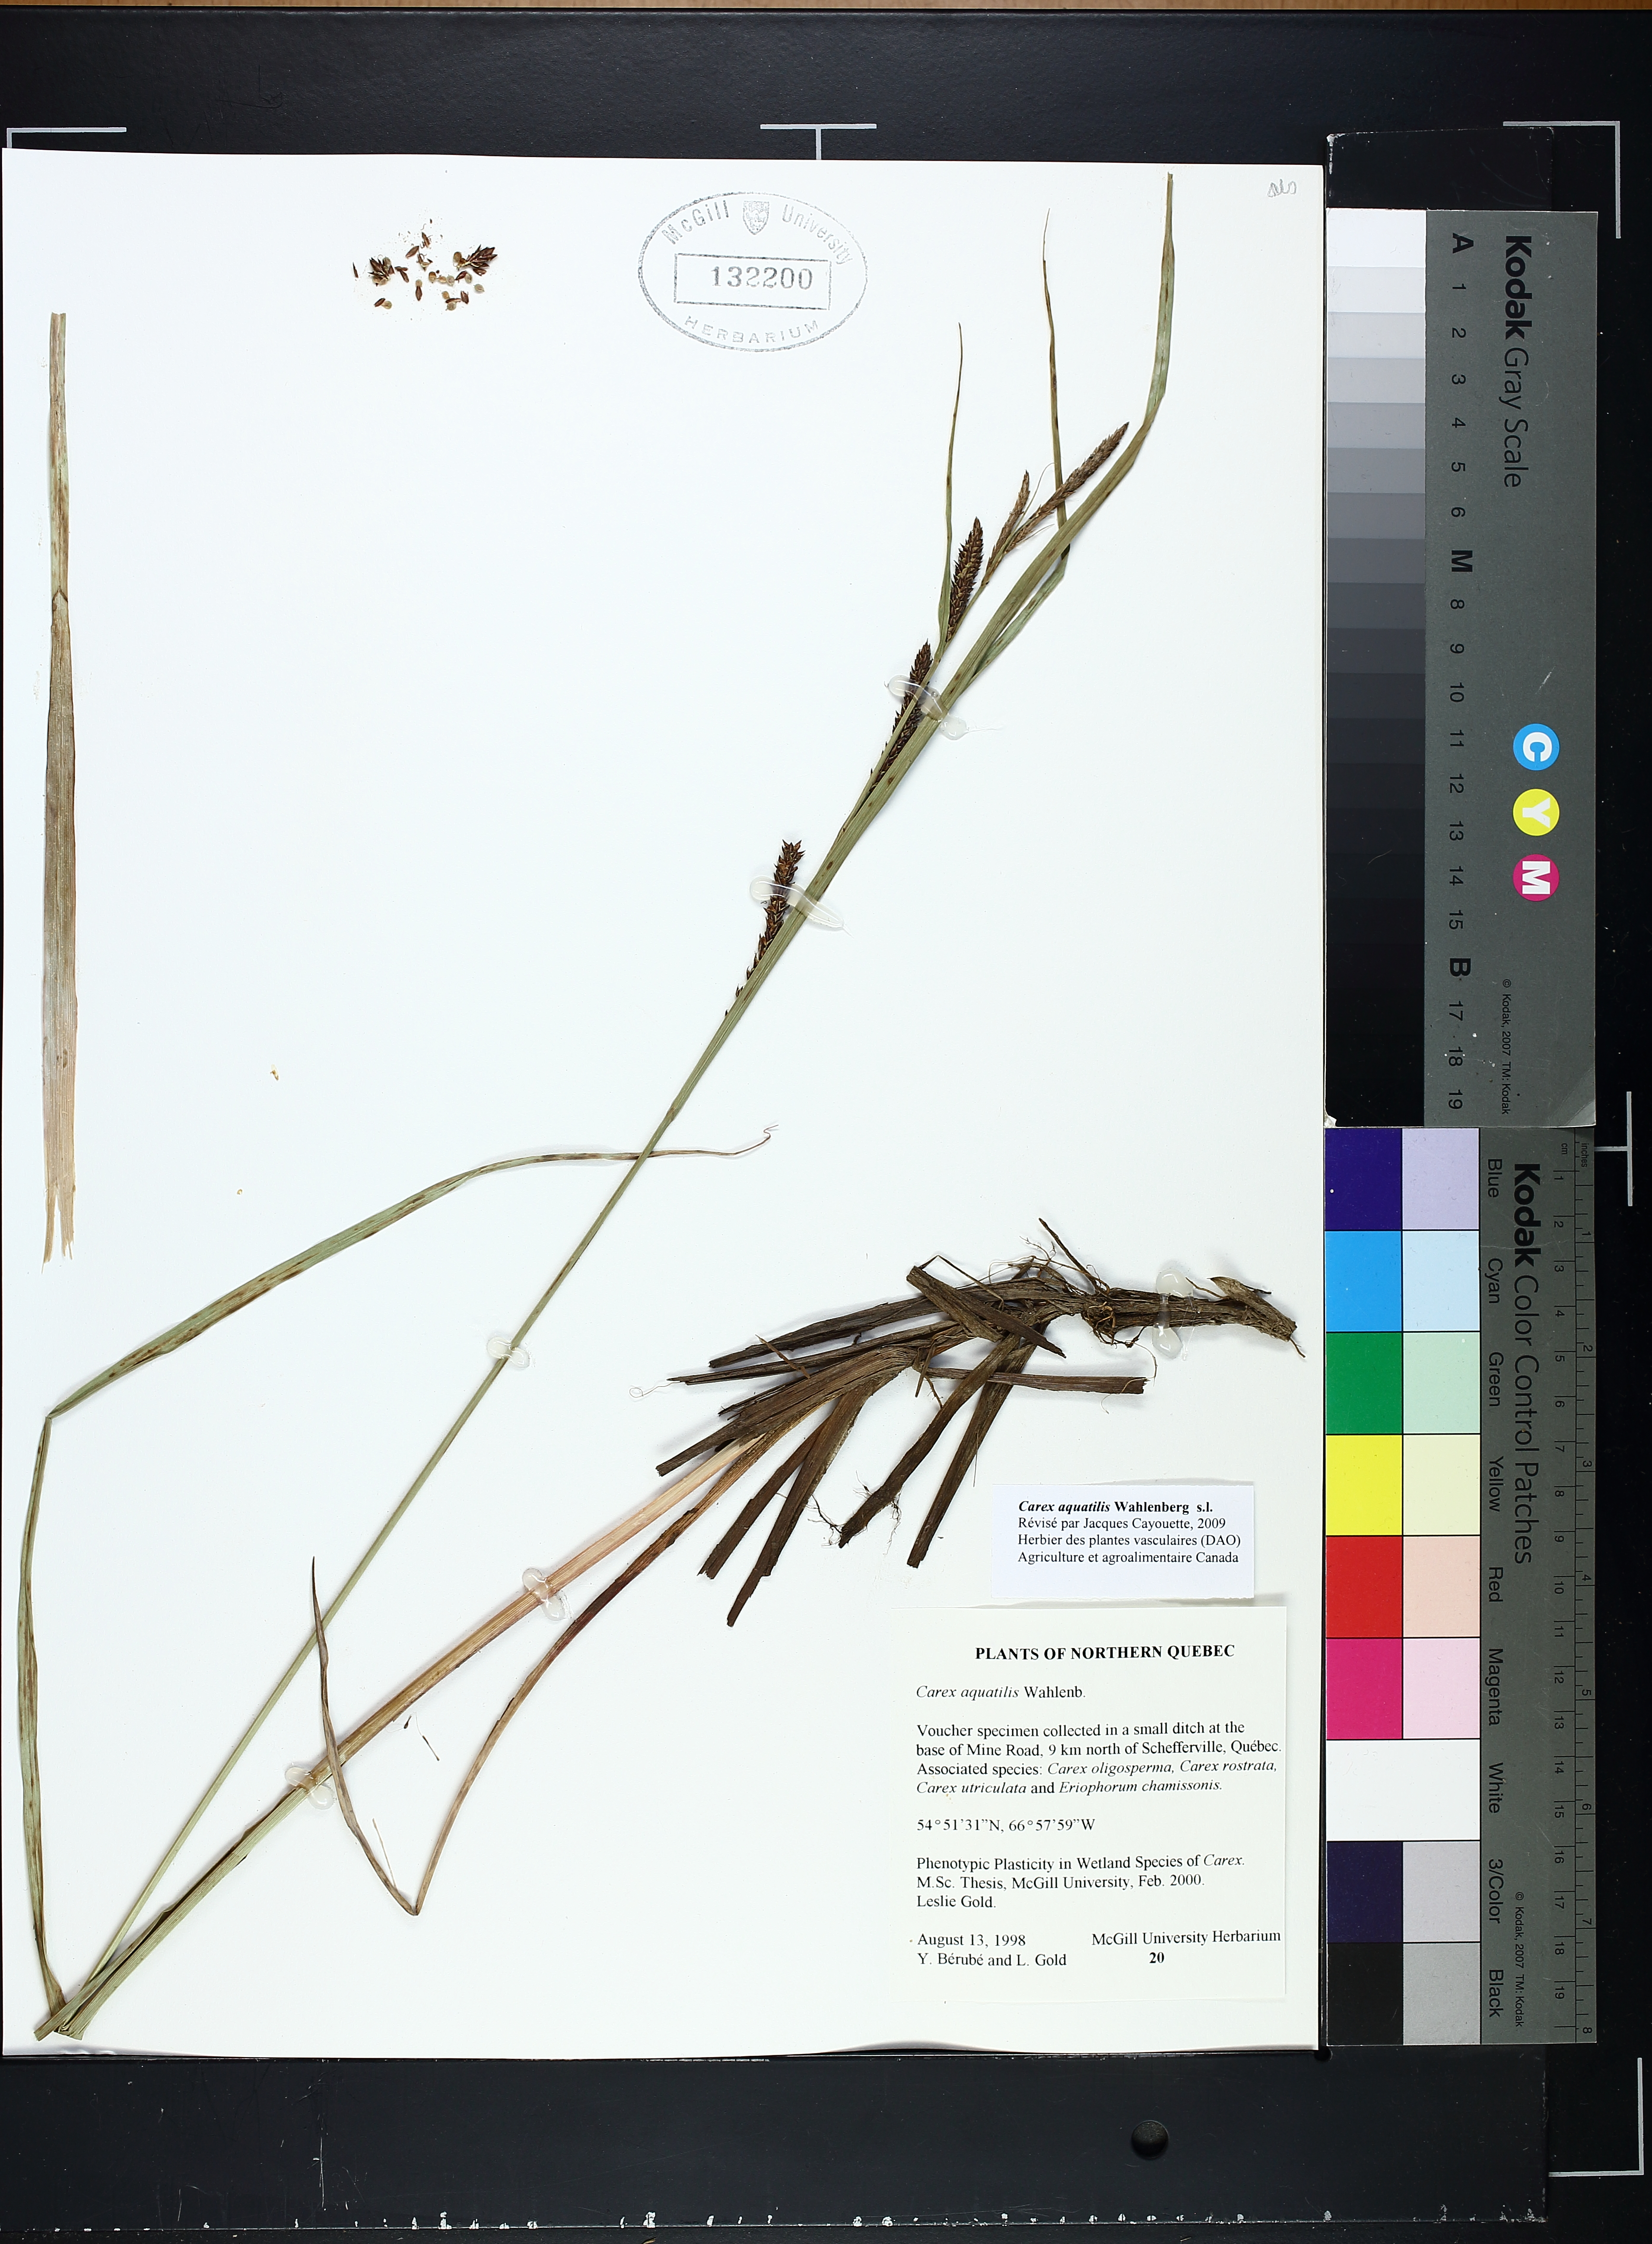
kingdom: Plantae
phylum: Tracheophyta
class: Liliopsida
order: Poales
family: Cyperaceae
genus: Carex
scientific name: Carex aquatilis
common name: Water sedge
